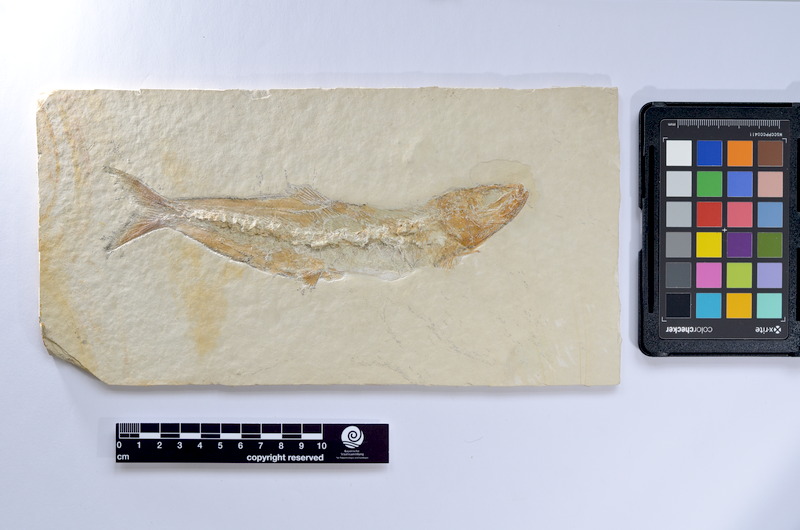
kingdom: Animalia
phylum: Chordata
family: Ascalaboidae
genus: Tharsis
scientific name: Tharsis dubius
